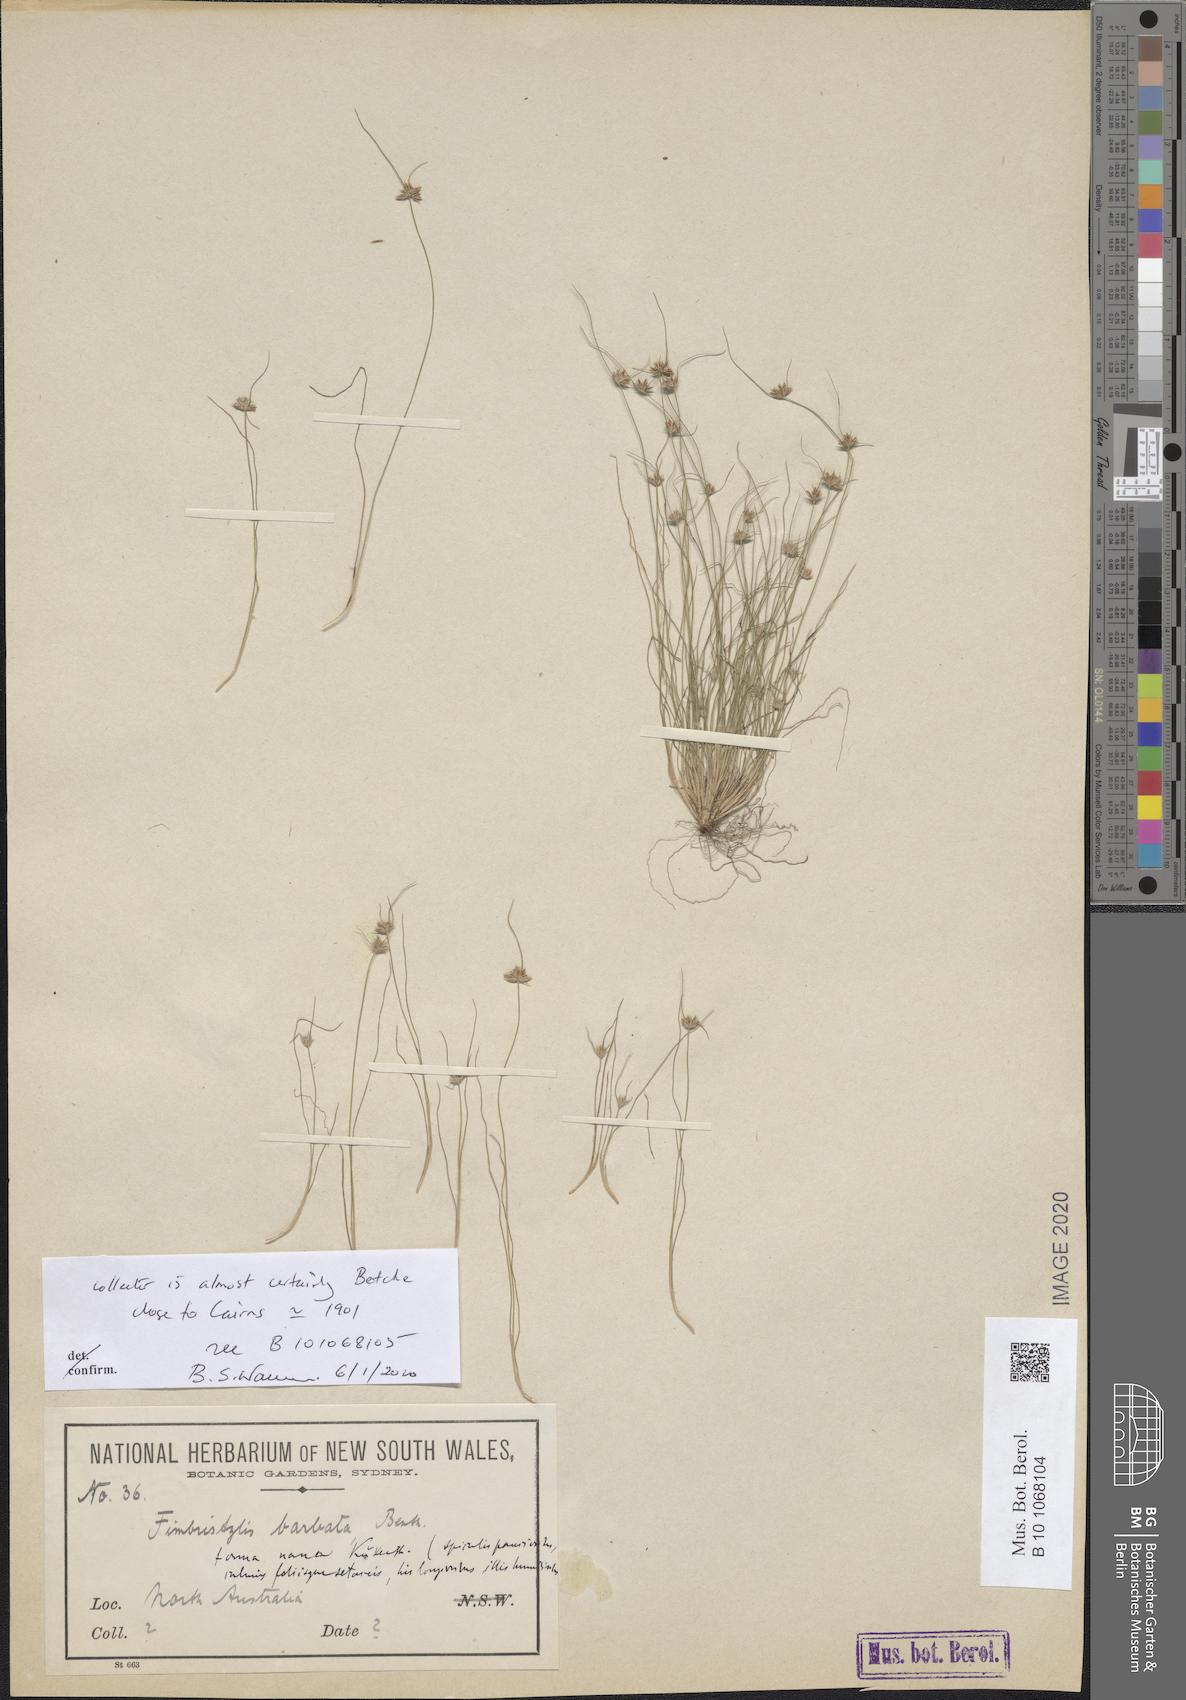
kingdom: Plantae
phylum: Tracheophyta
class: Liliopsida
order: Poales
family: Cyperaceae
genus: Bulbostylis
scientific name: Bulbostylis barbata
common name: Watergrass
